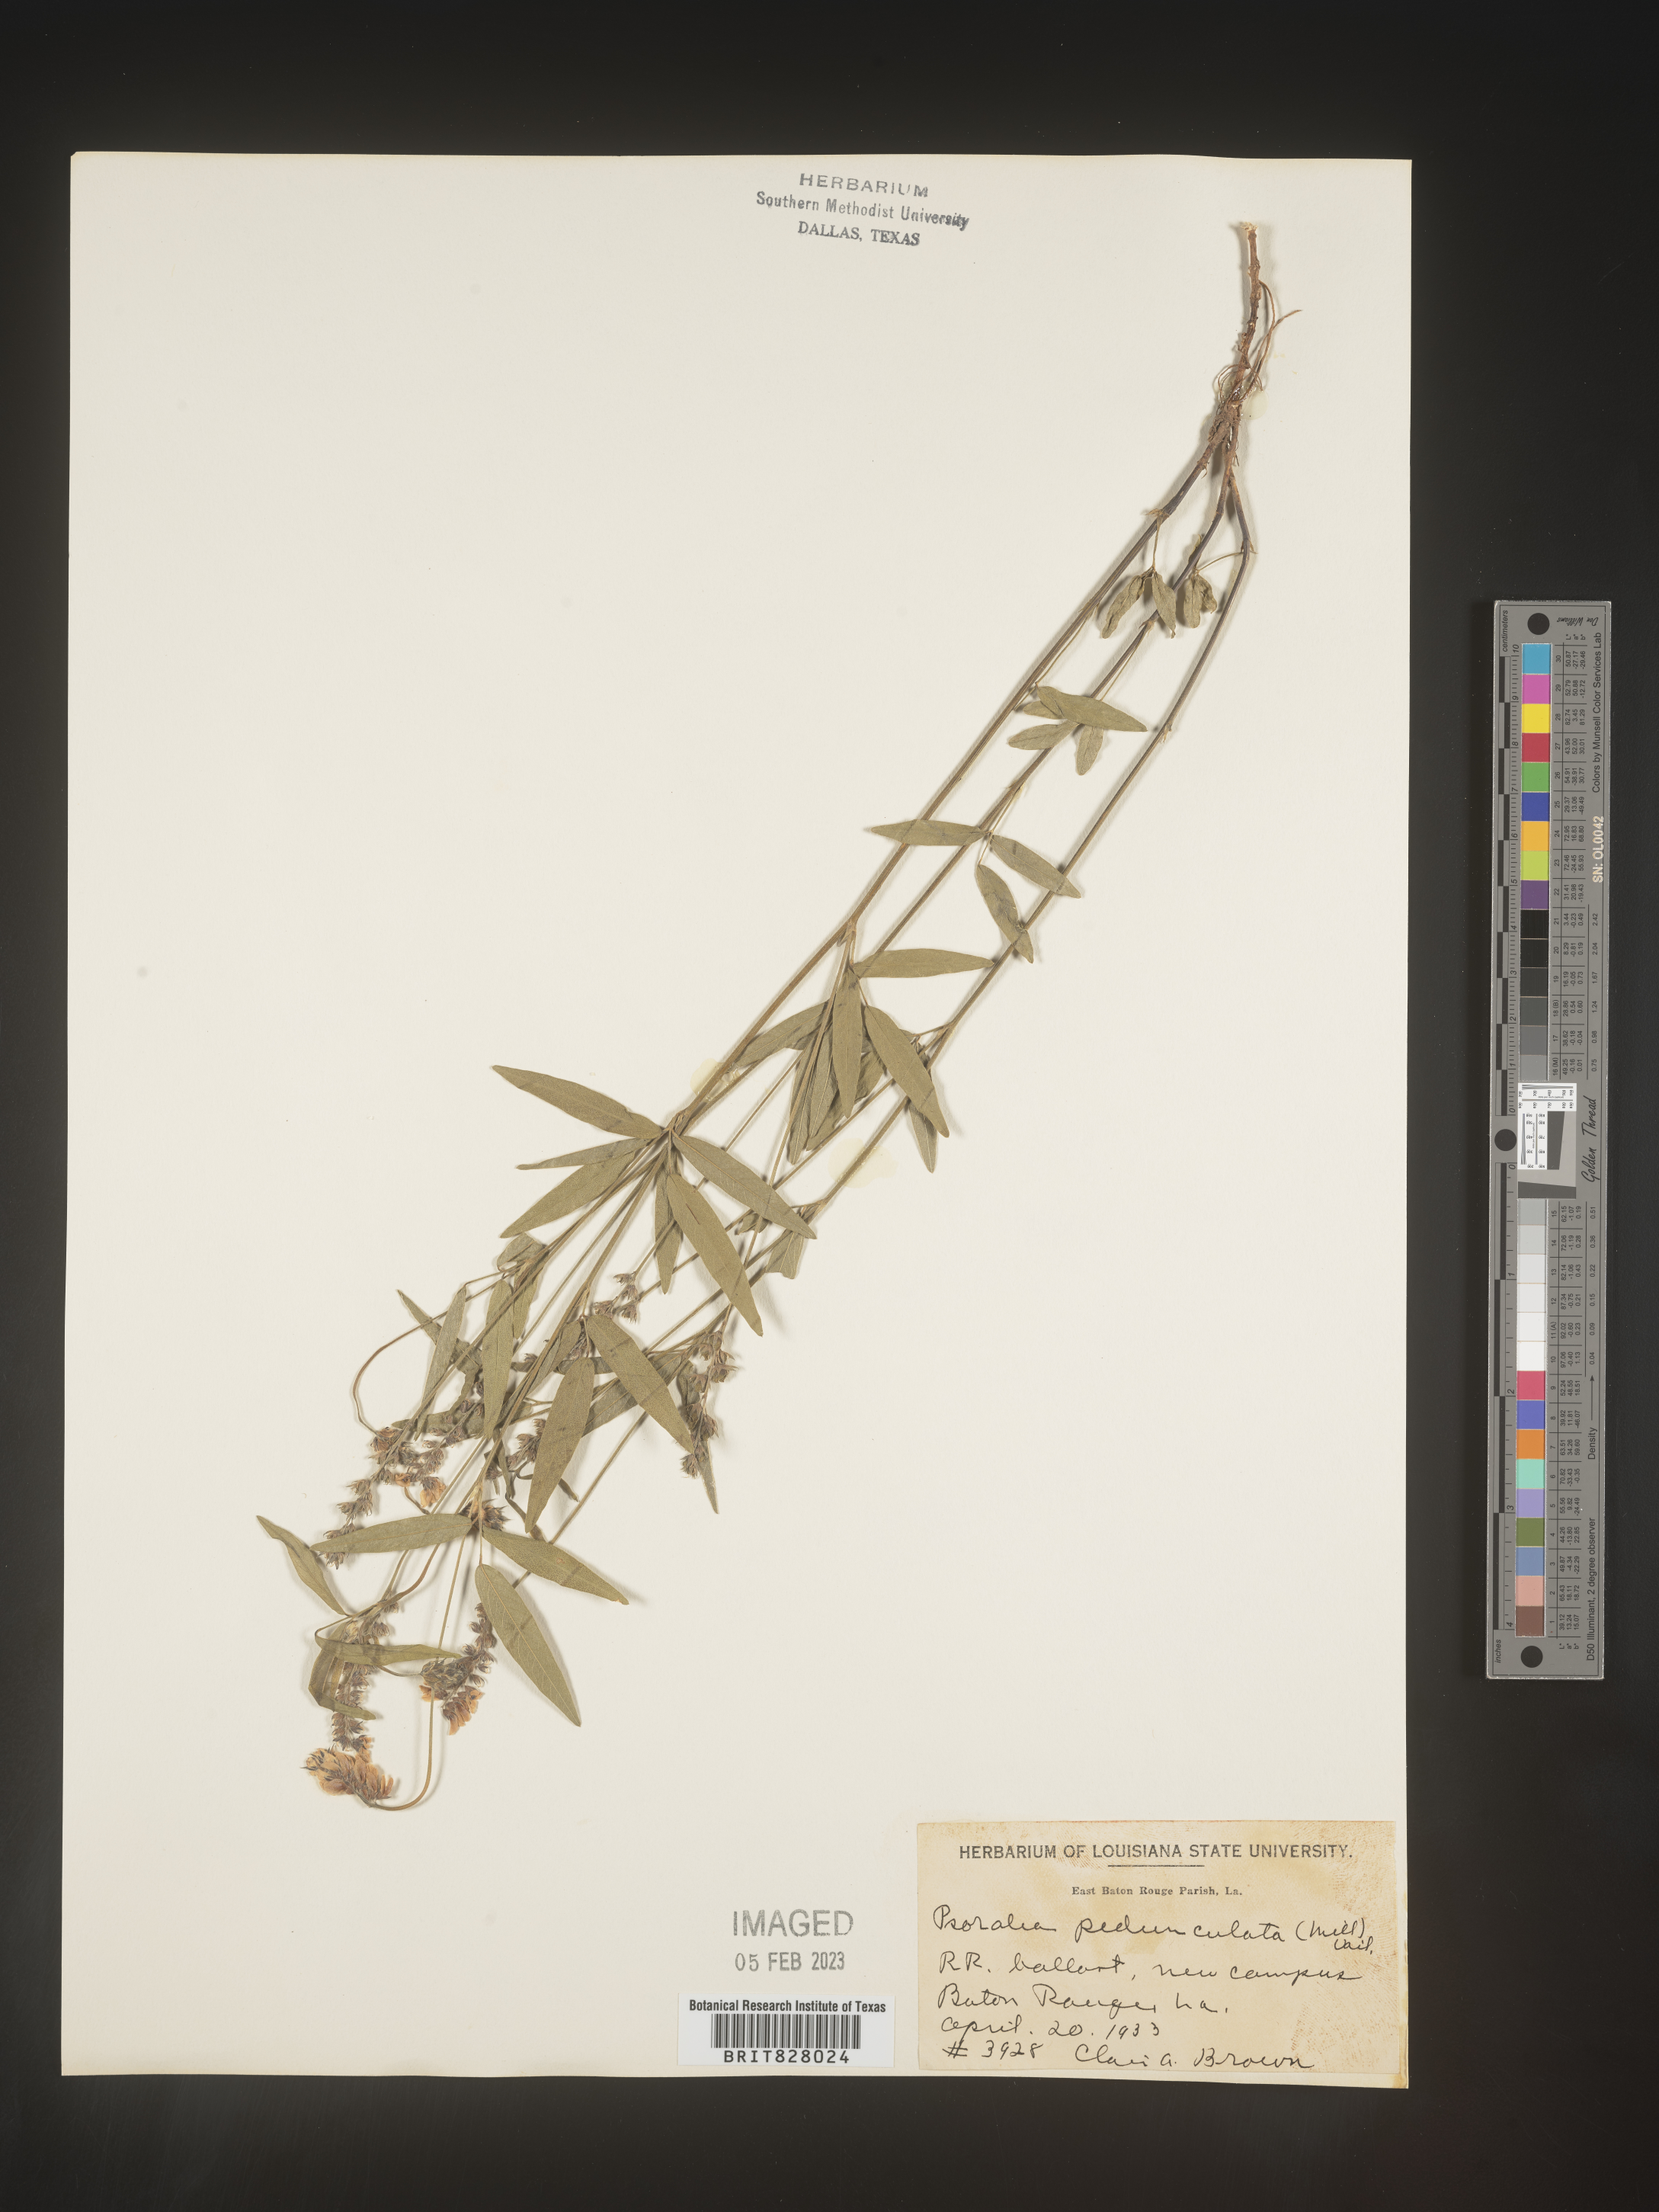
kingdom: Plantae
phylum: Tracheophyta
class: Magnoliopsida
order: Fabales
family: Fabaceae
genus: Orbexilum
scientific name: Orbexilum pedunculatum
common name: Sampson's snakeroot
